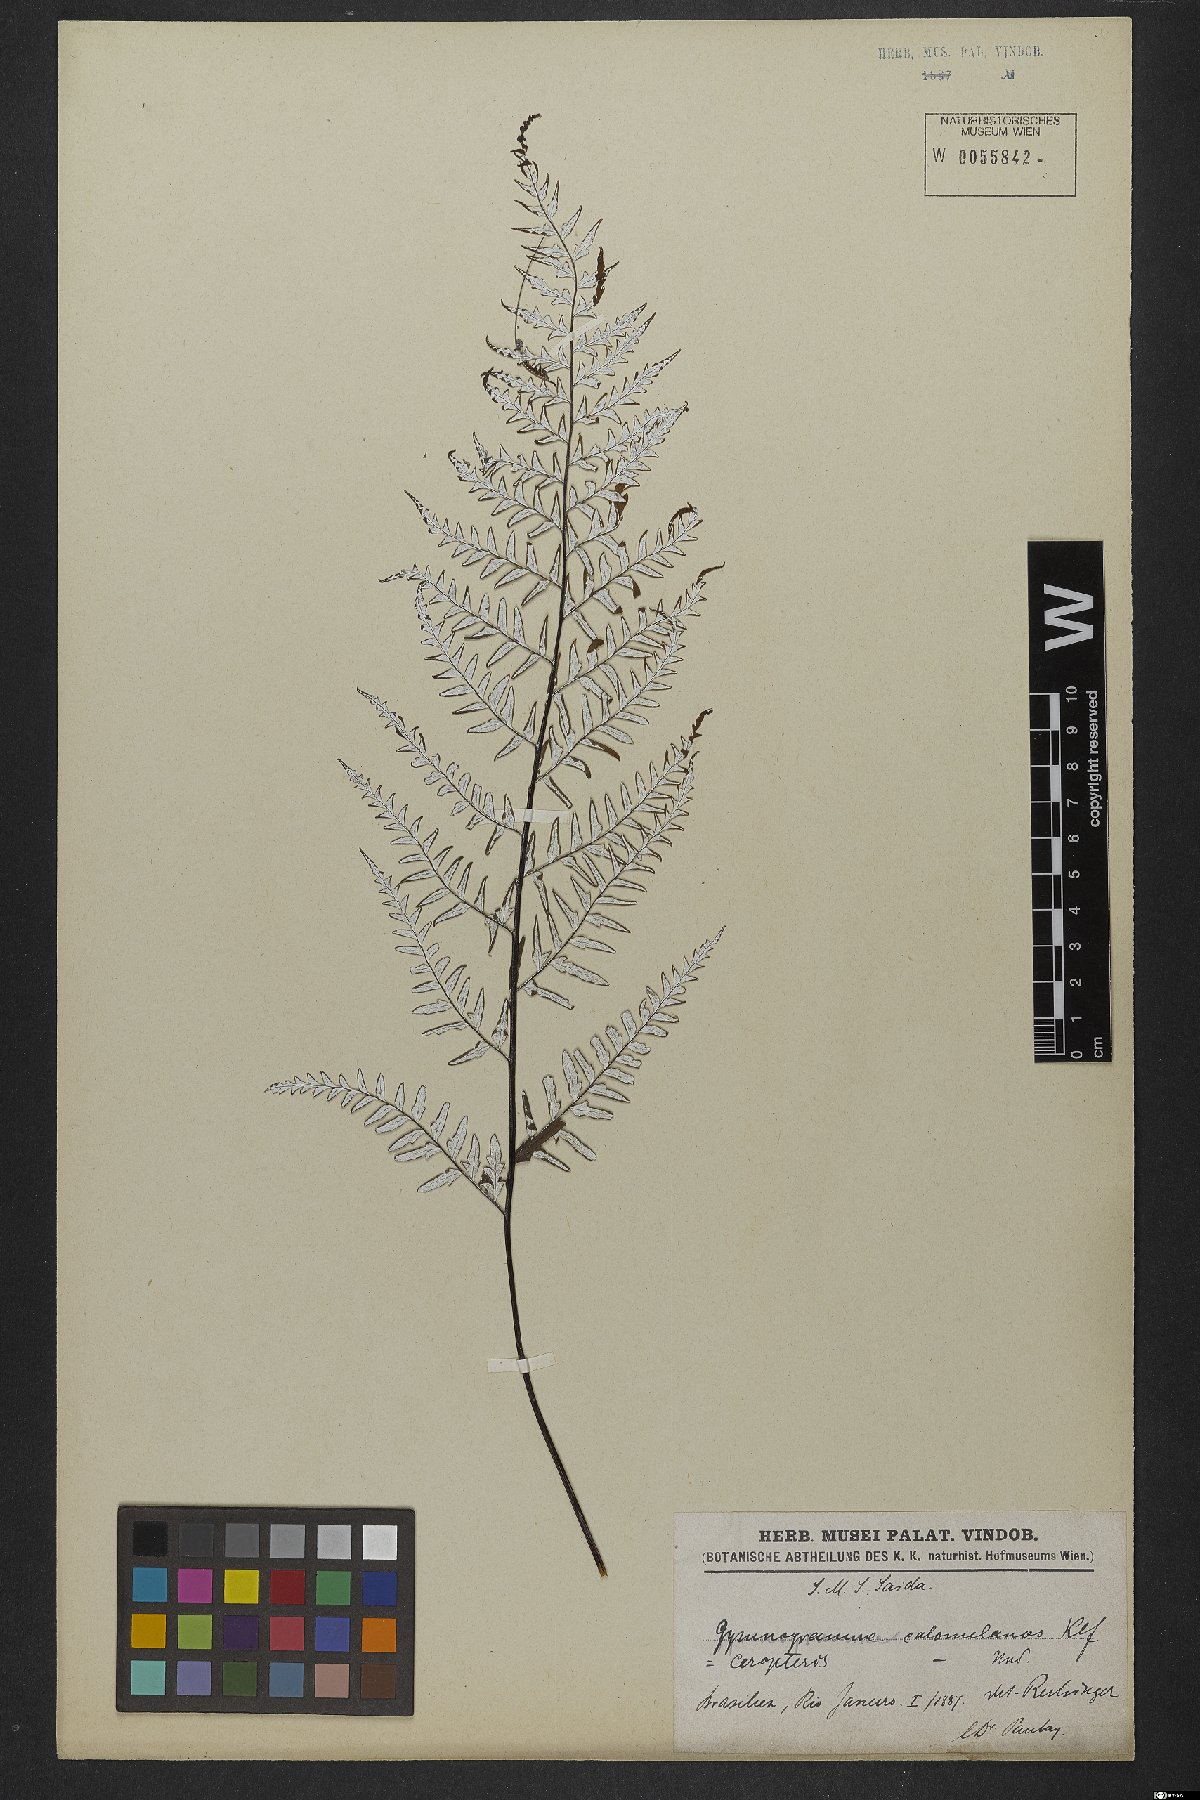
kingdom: Plantae
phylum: Tracheophyta
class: Polypodiopsida
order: Polypodiales
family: Pteridaceae
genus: Pityrogramma
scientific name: Pityrogramma calomelanos
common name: Dixie silverback fern
